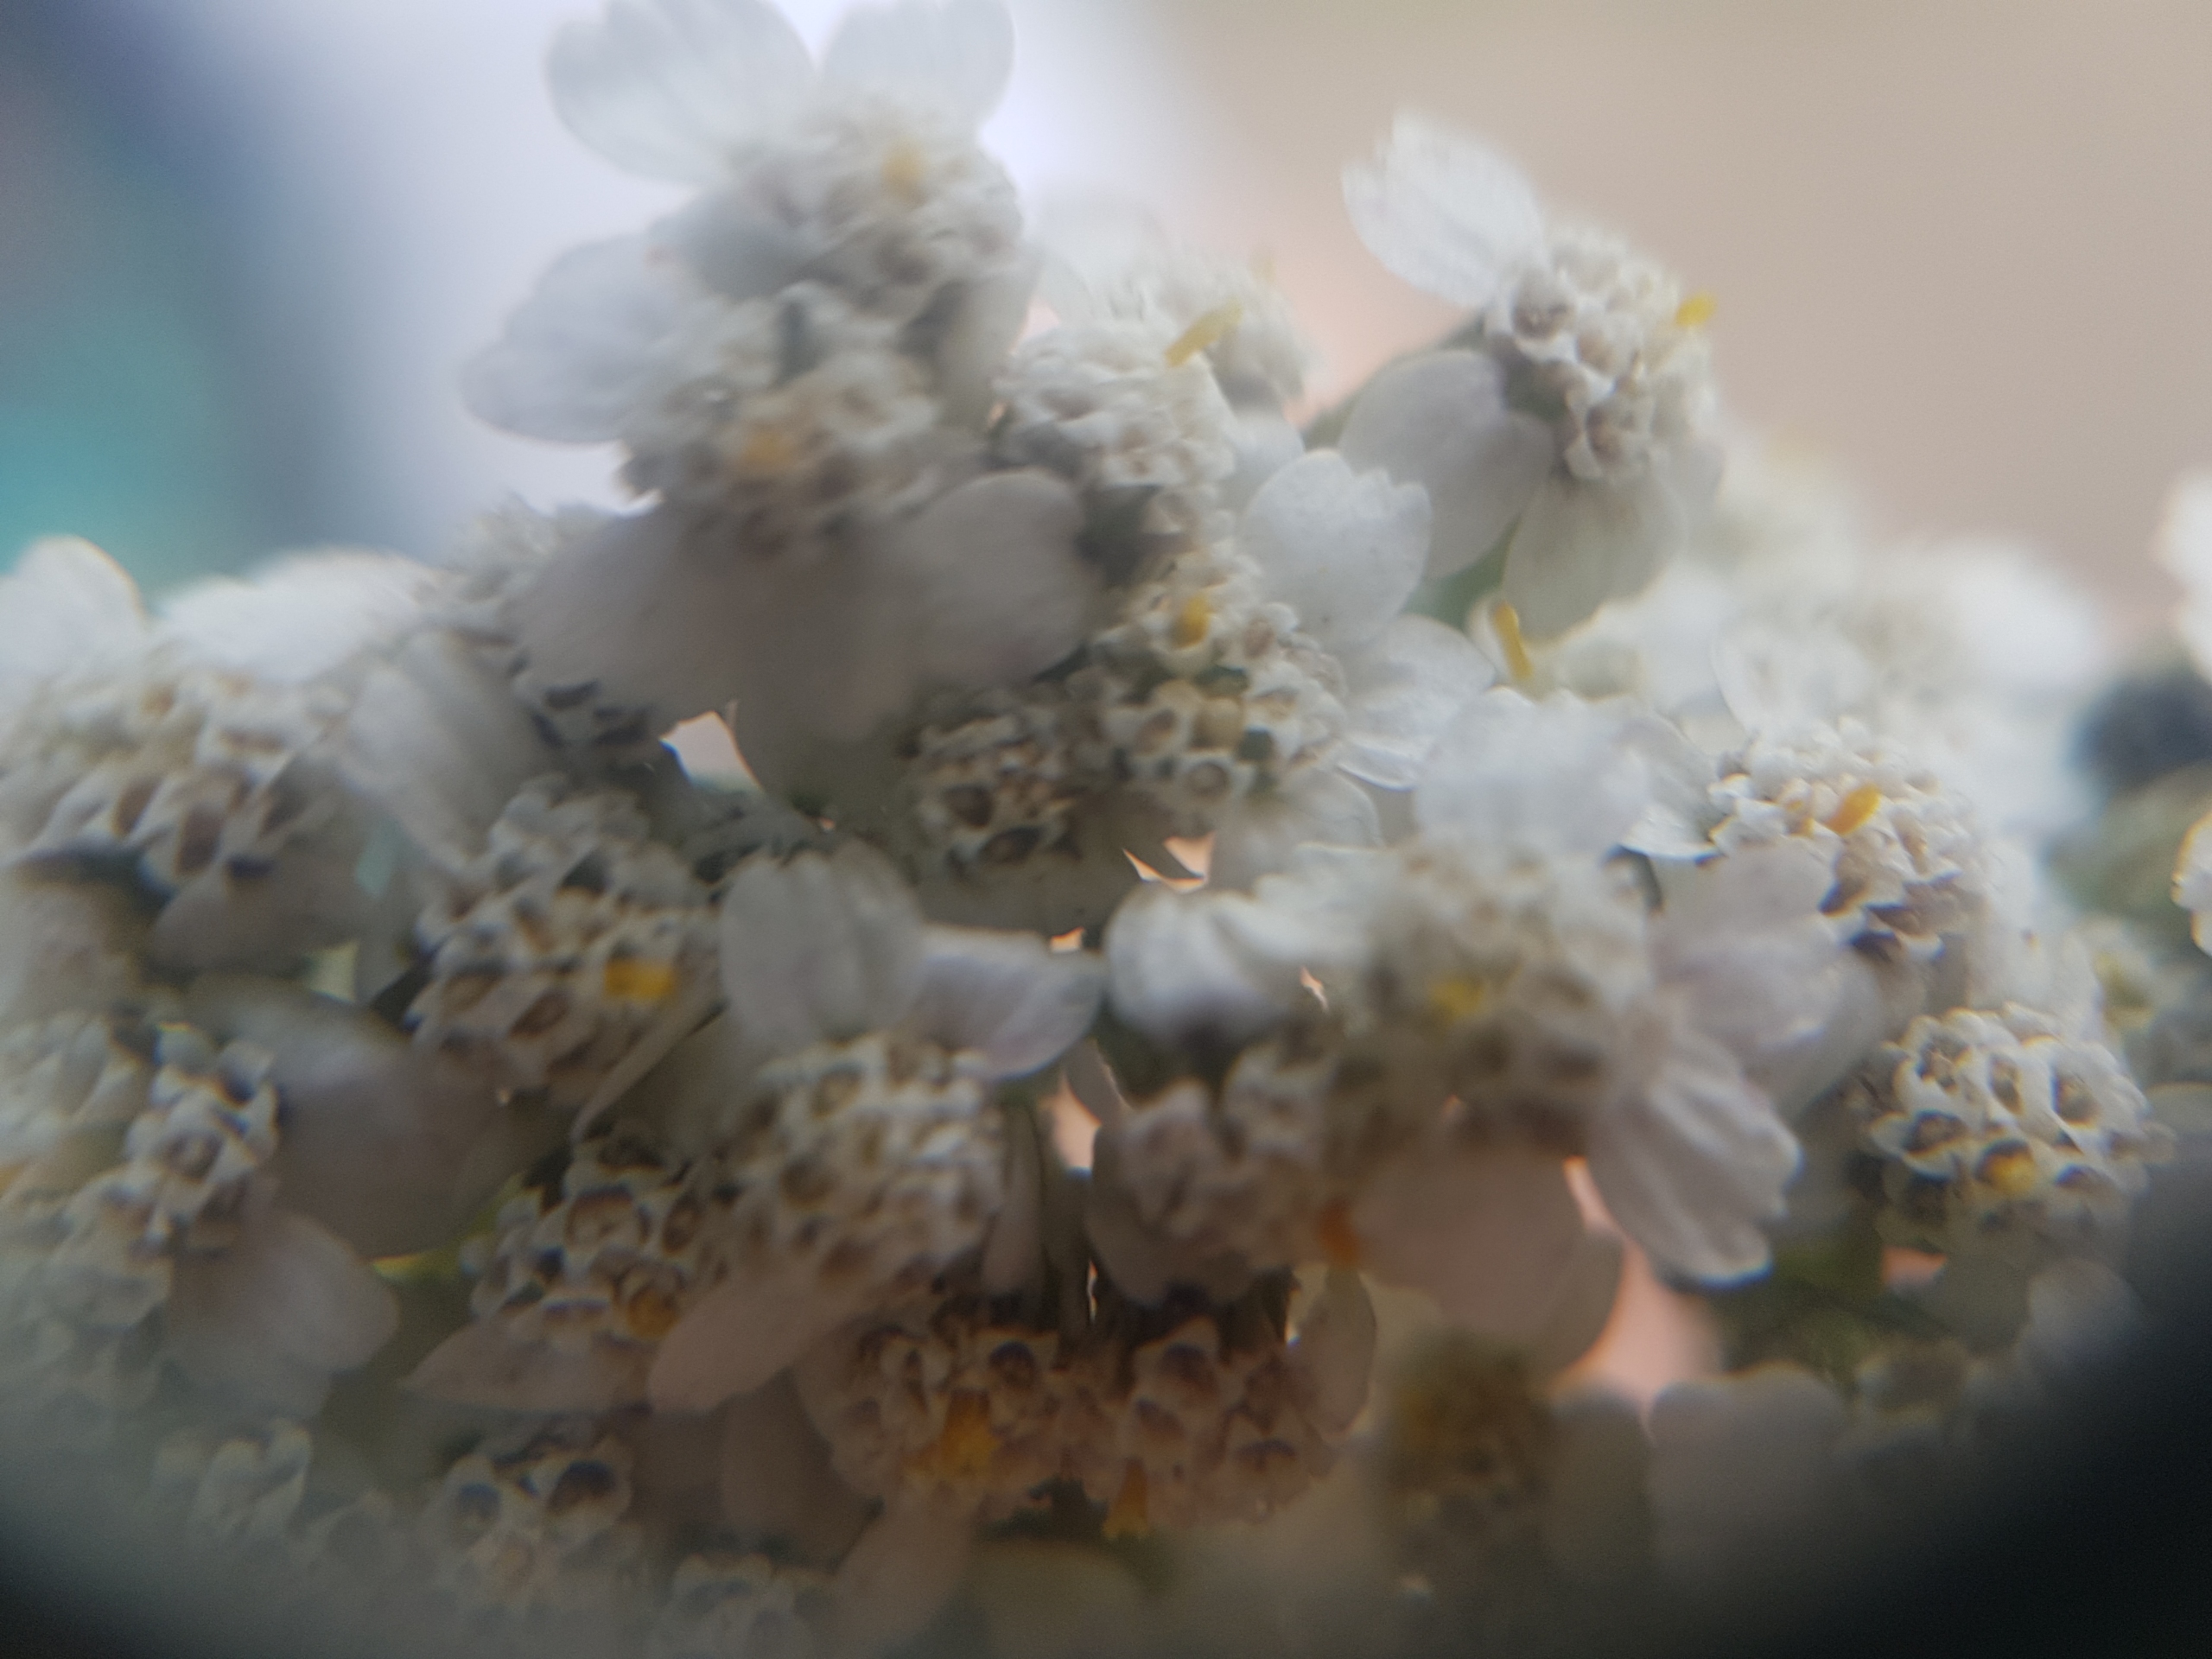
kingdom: Plantae
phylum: Tracheophyta
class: Magnoliopsida
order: Asterales
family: Asteraceae
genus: Achillea
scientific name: Achillea millefolium
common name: Almindelig røllike
